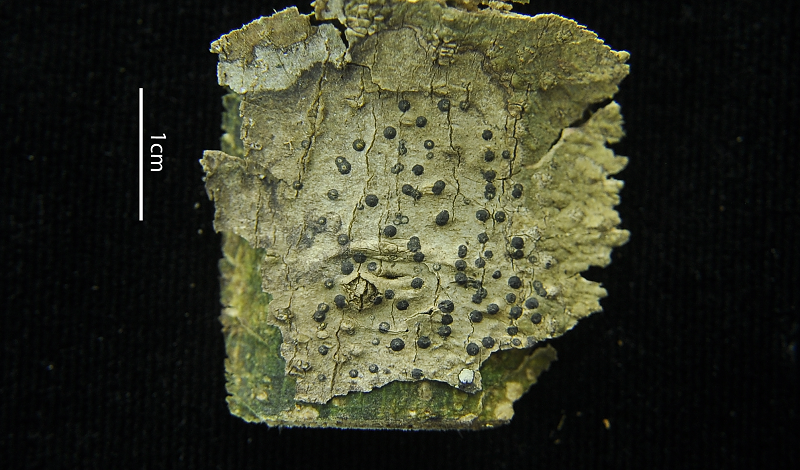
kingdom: Fungi
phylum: Ascomycota
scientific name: Ascomycota
